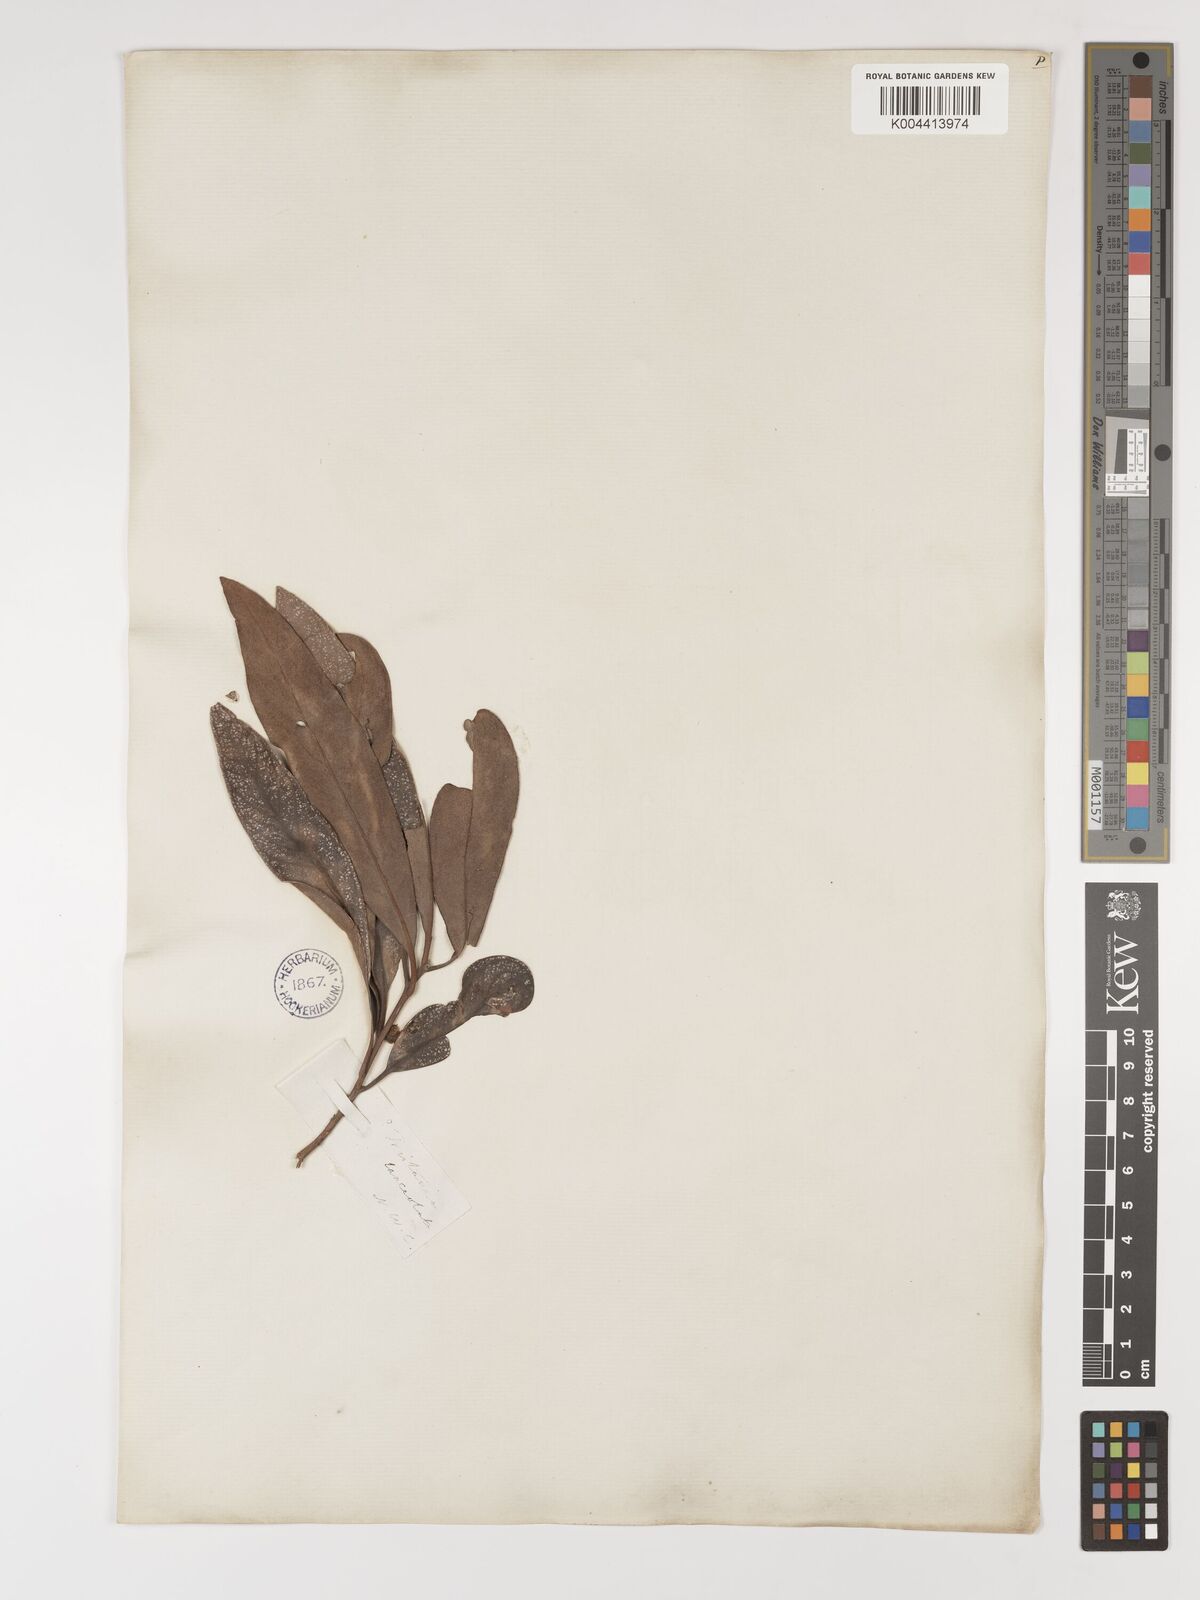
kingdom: Plantae
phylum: Tracheophyta
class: Magnoliopsida
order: Myrtales
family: Myrtaceae
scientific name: Myrtaceae
